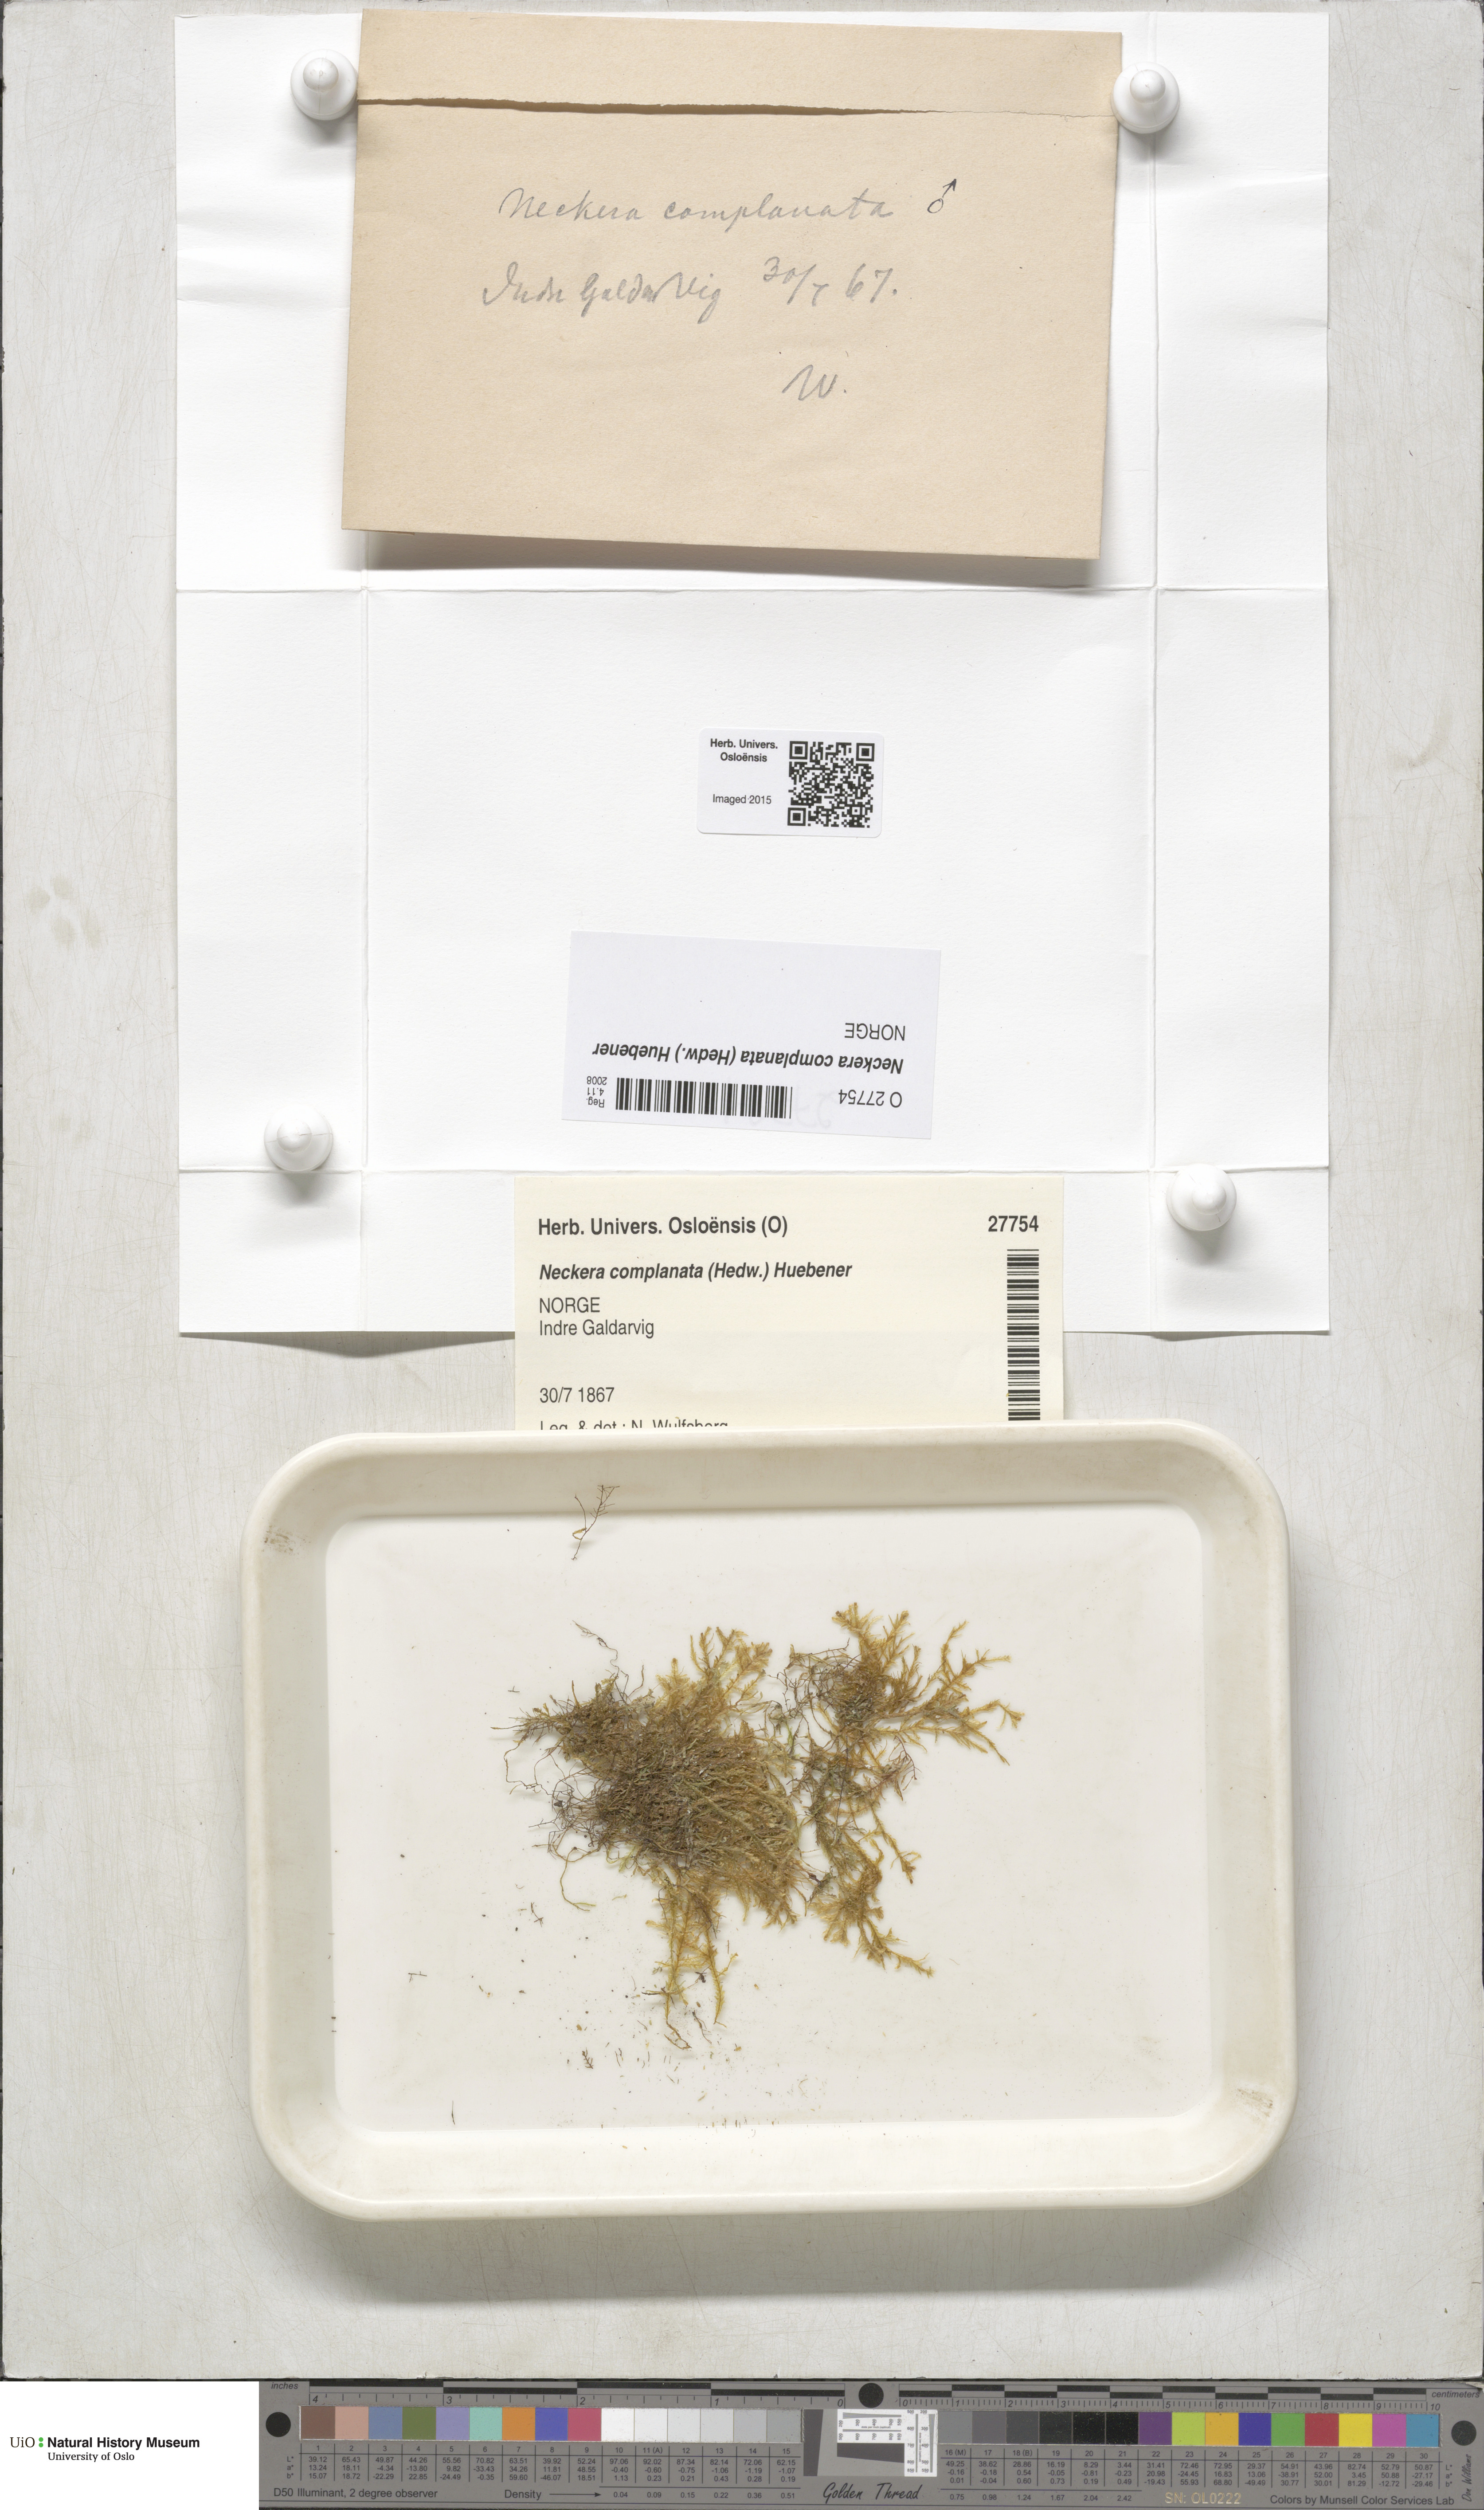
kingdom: Plantae
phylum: Bryophyta
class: Bryopsida
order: Hypnales
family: Neckeraceae
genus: Alleniella
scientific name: Alleniella complanata
